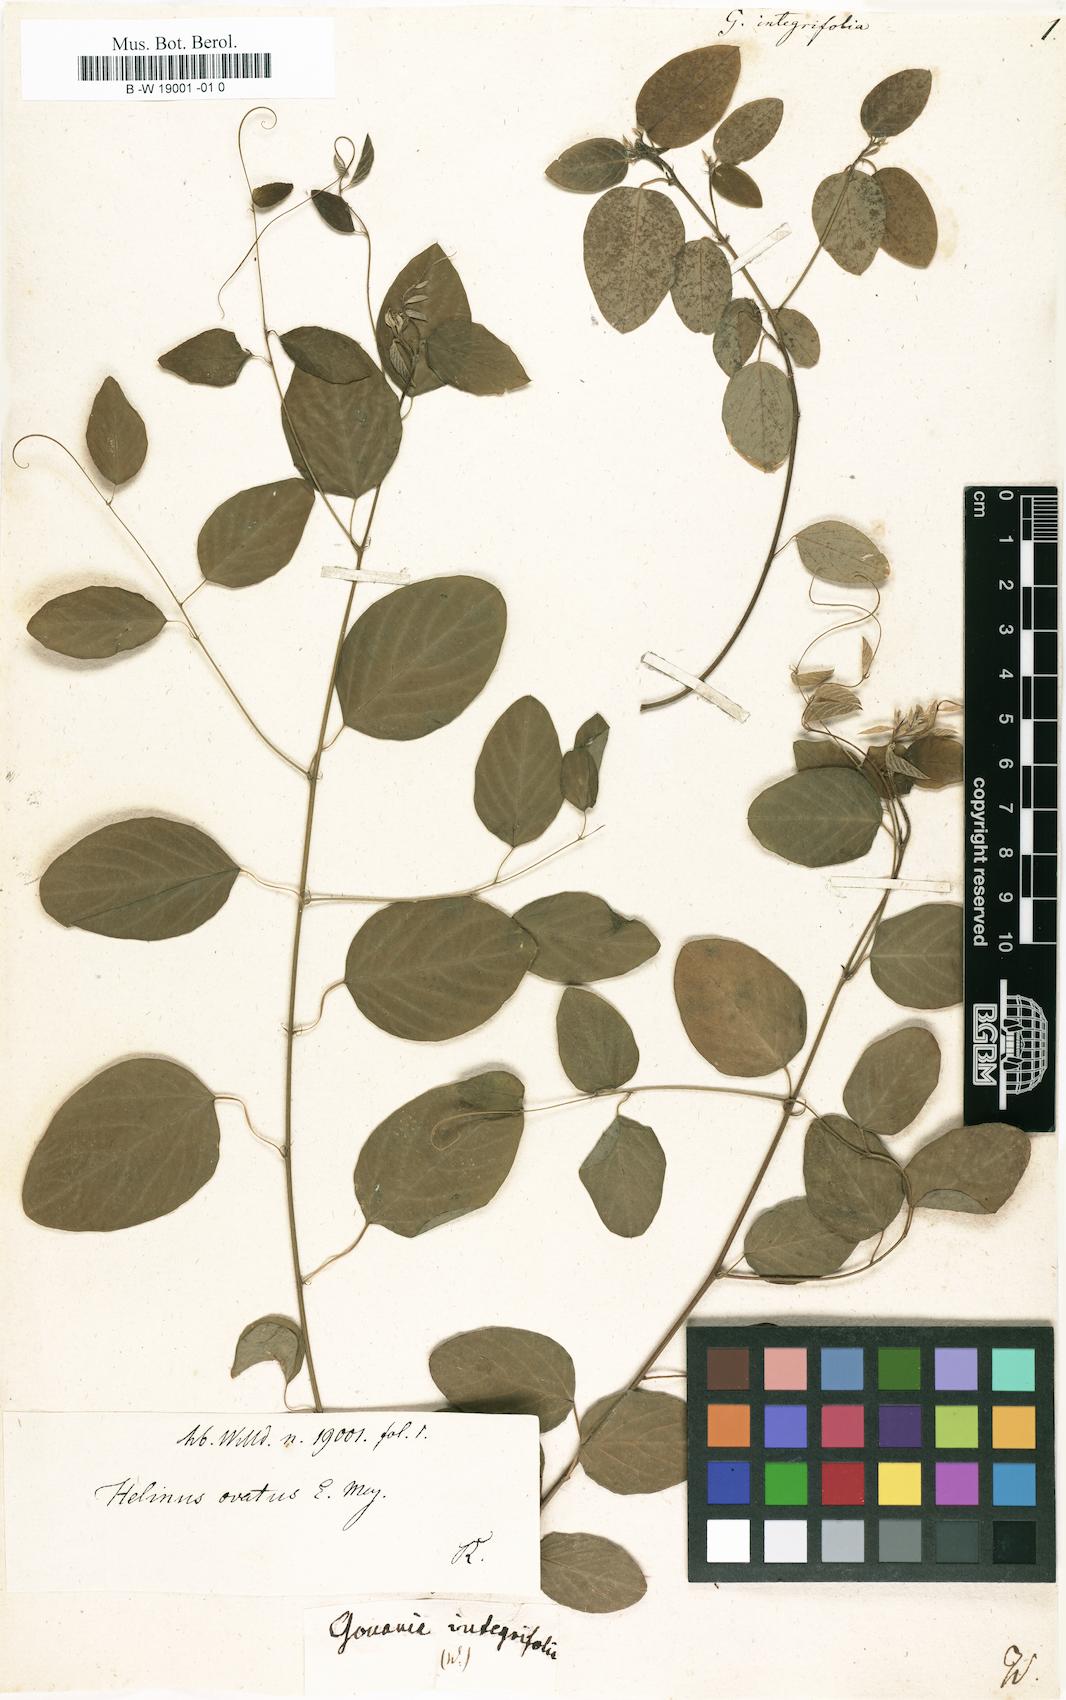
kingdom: Plantae
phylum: Tracheophyta
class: Magnoliopsida
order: Rosales
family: Rhamnaceae
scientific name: Rhamnaceae
